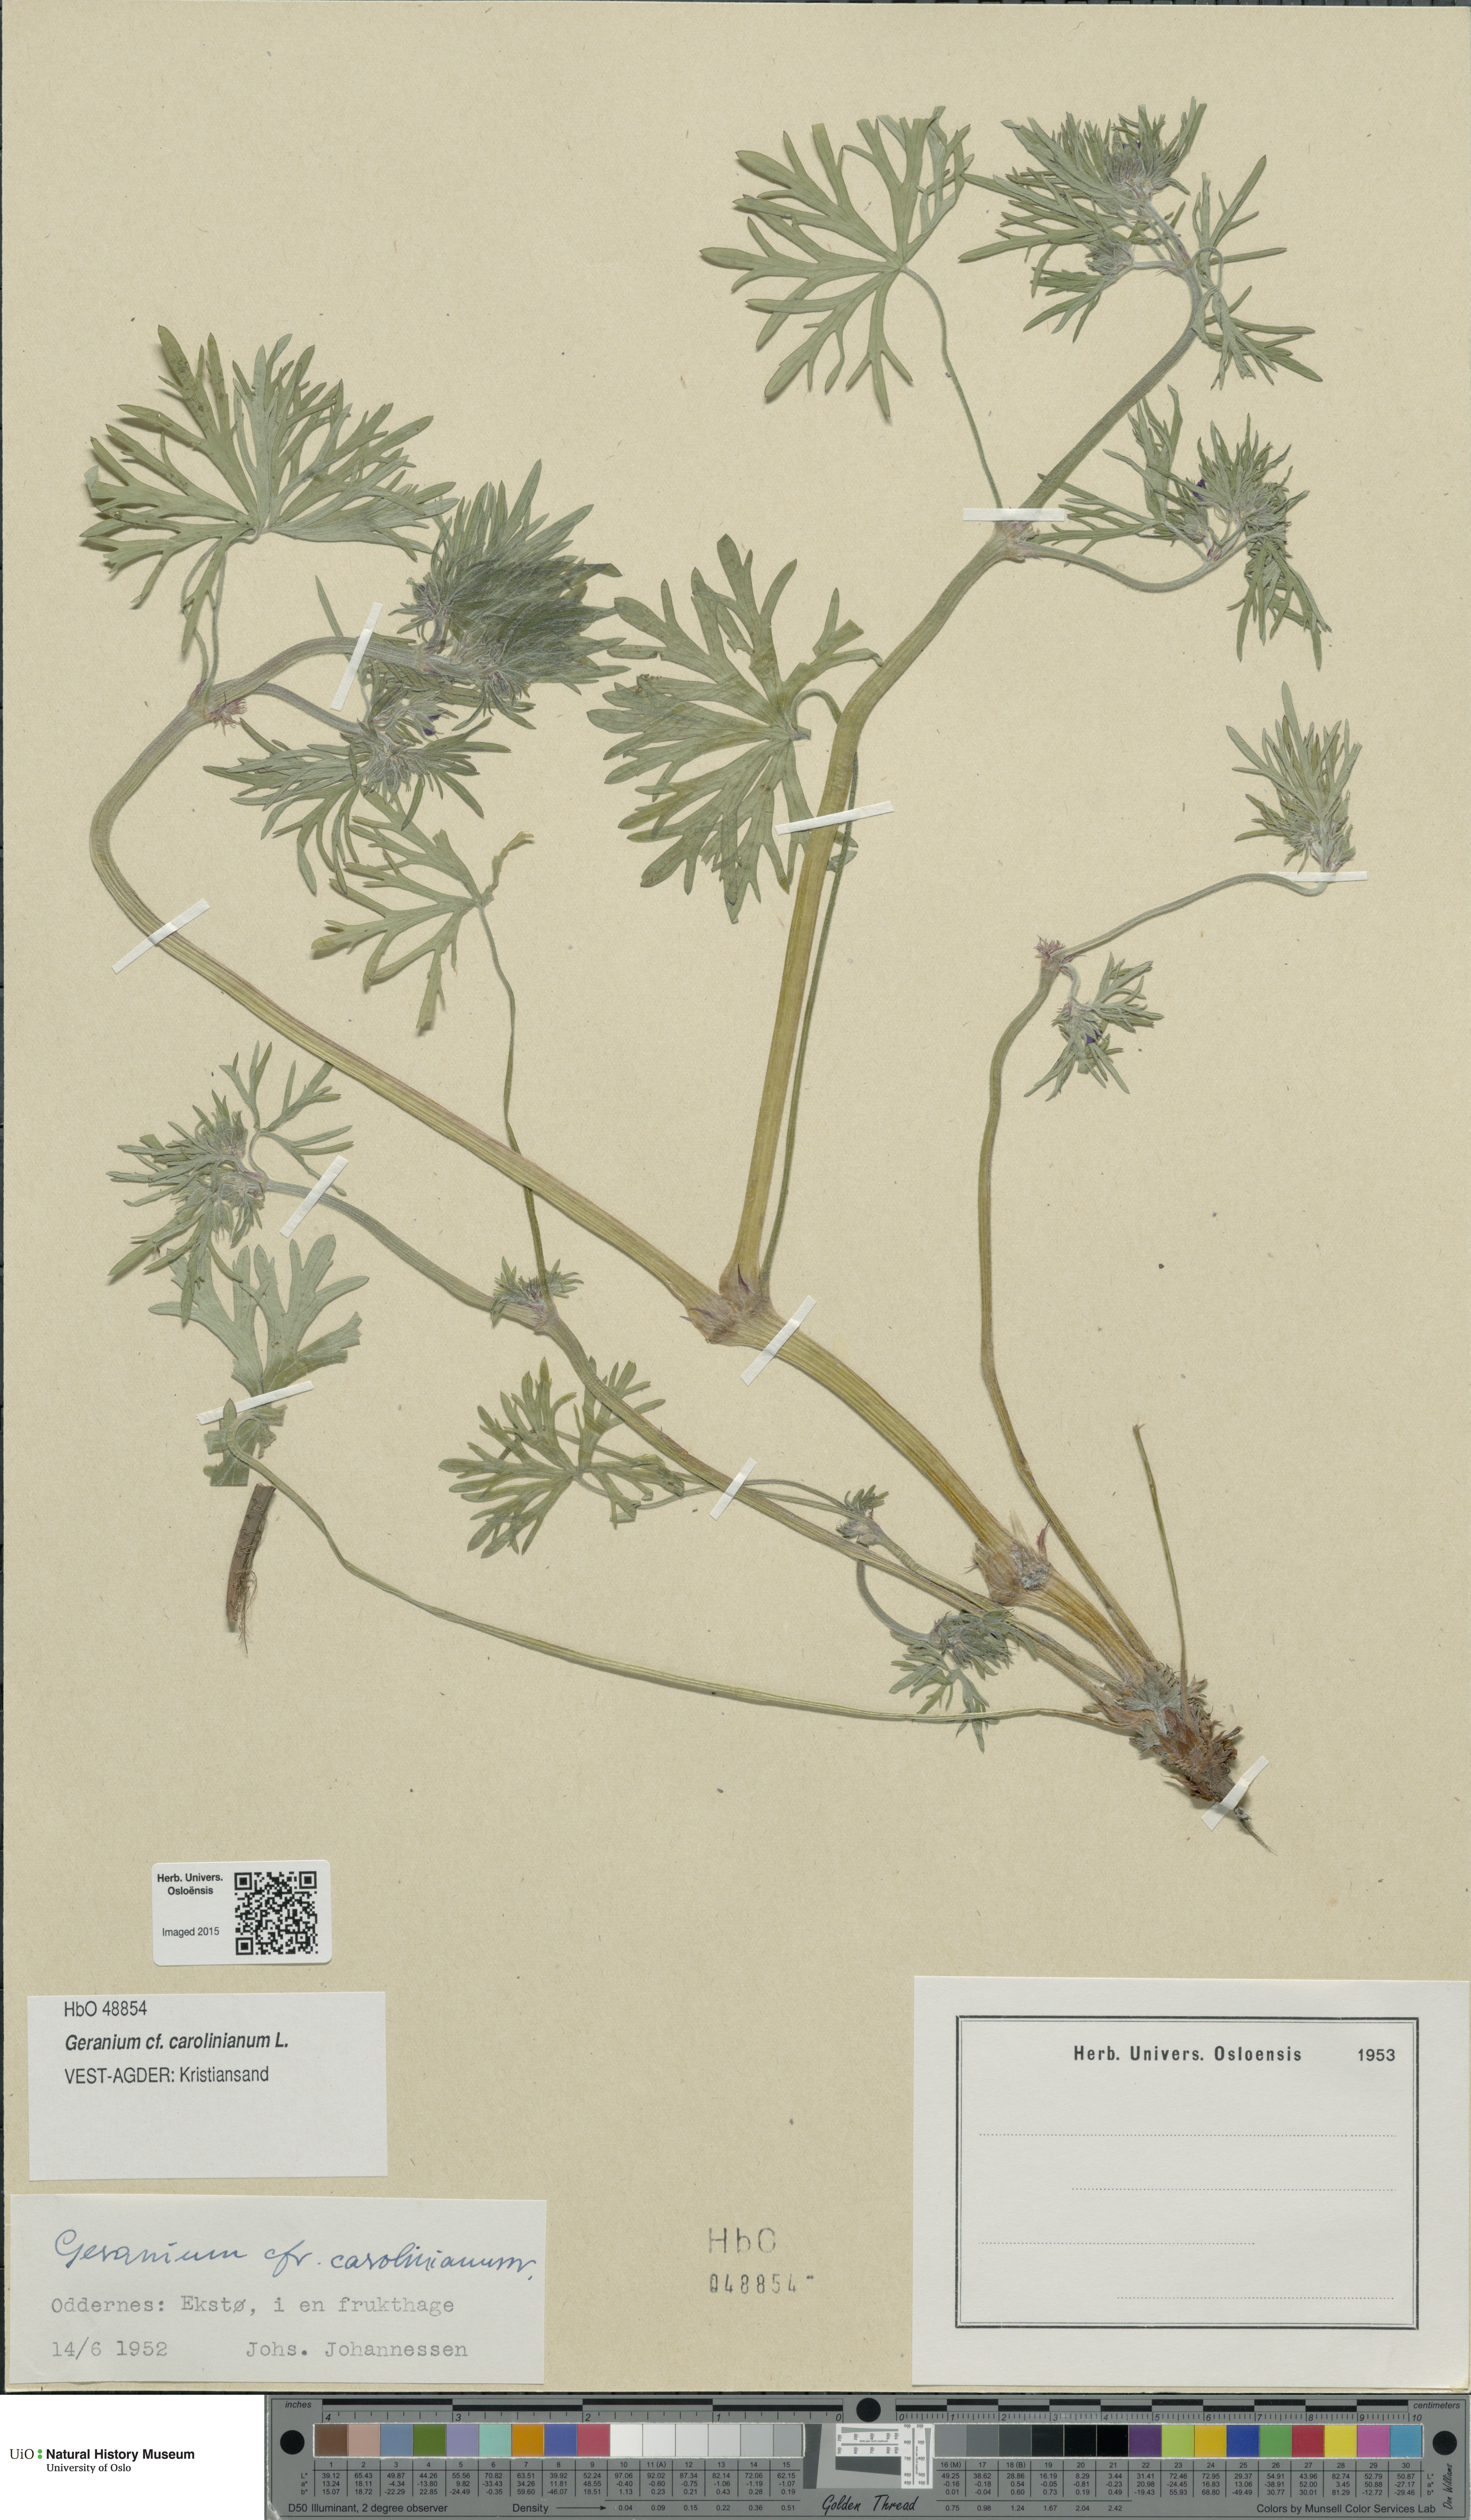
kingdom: Plantae
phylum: Tracheophyta
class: Magnoliopsida
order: Geraniales
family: Geraniaceae
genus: Geranium
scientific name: Geranium carolinianum
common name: Carolina crane's-bill
